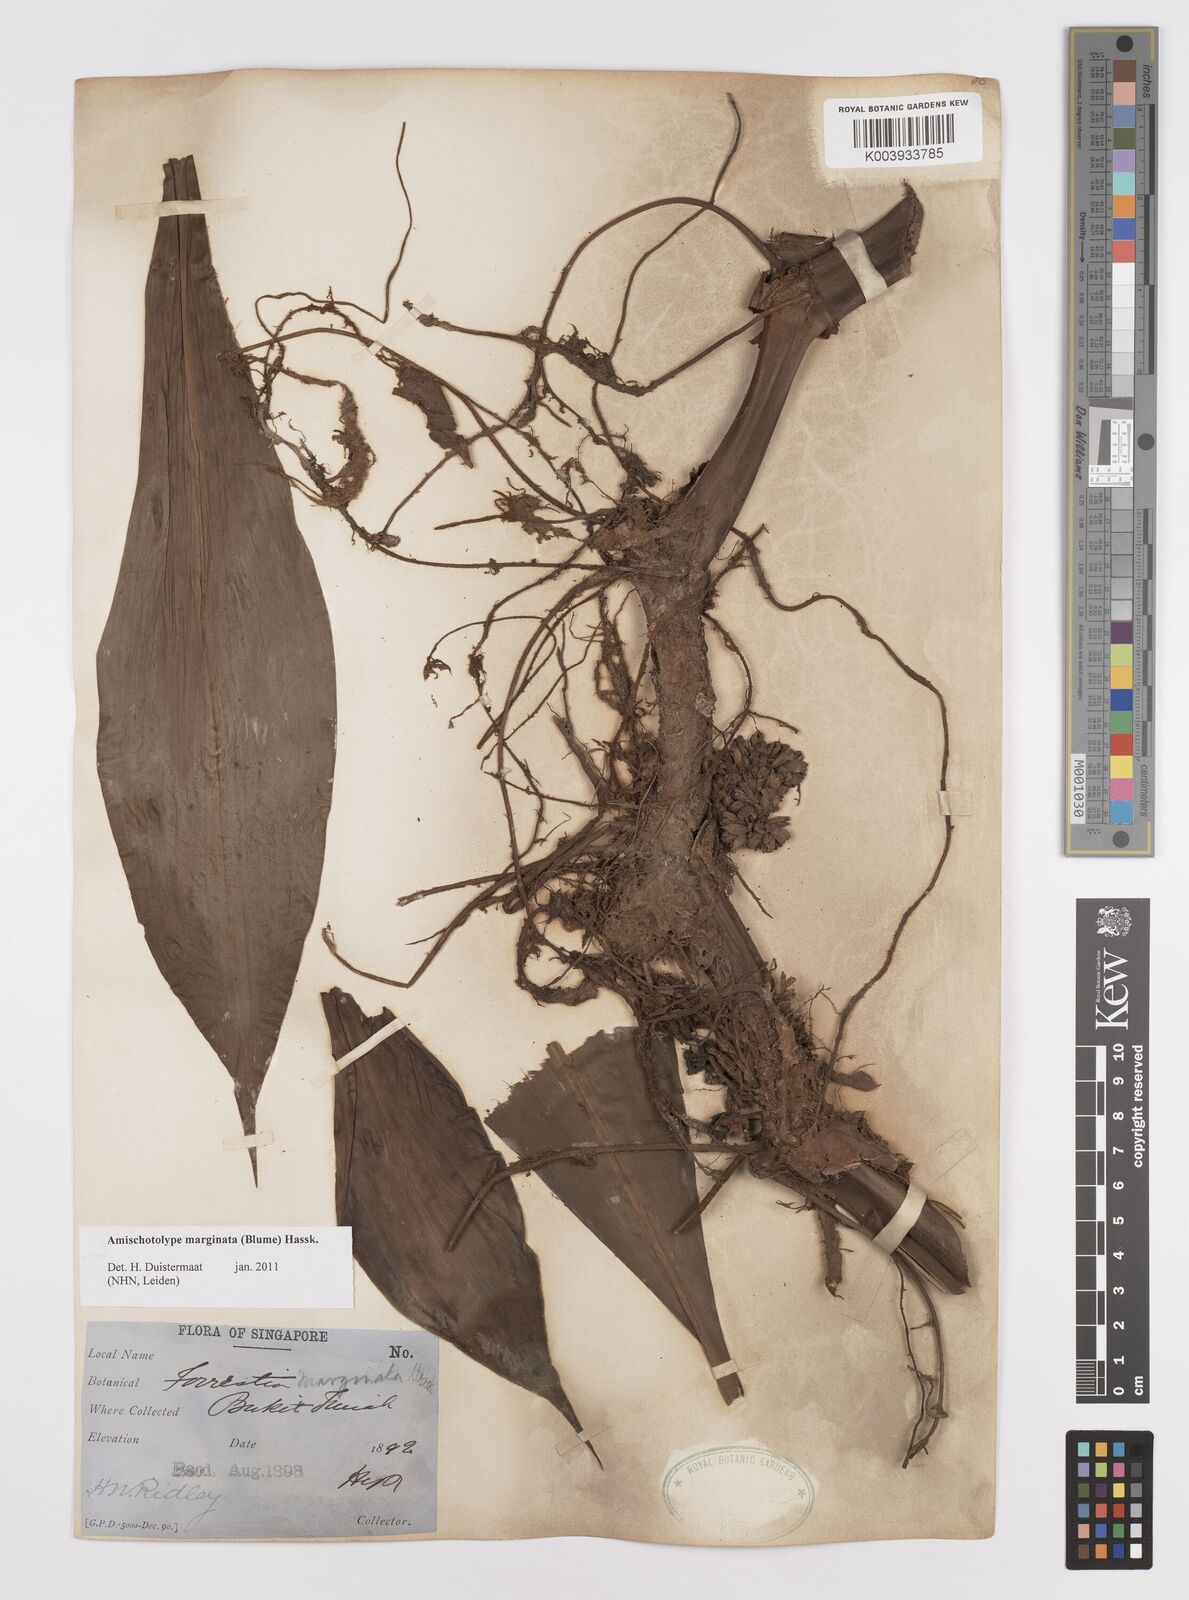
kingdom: Plantae
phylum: Tracheophyta
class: Liliopsida
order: Commelinales
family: Commelinaceae
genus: Amischotolype
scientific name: Amischotolype marginata
